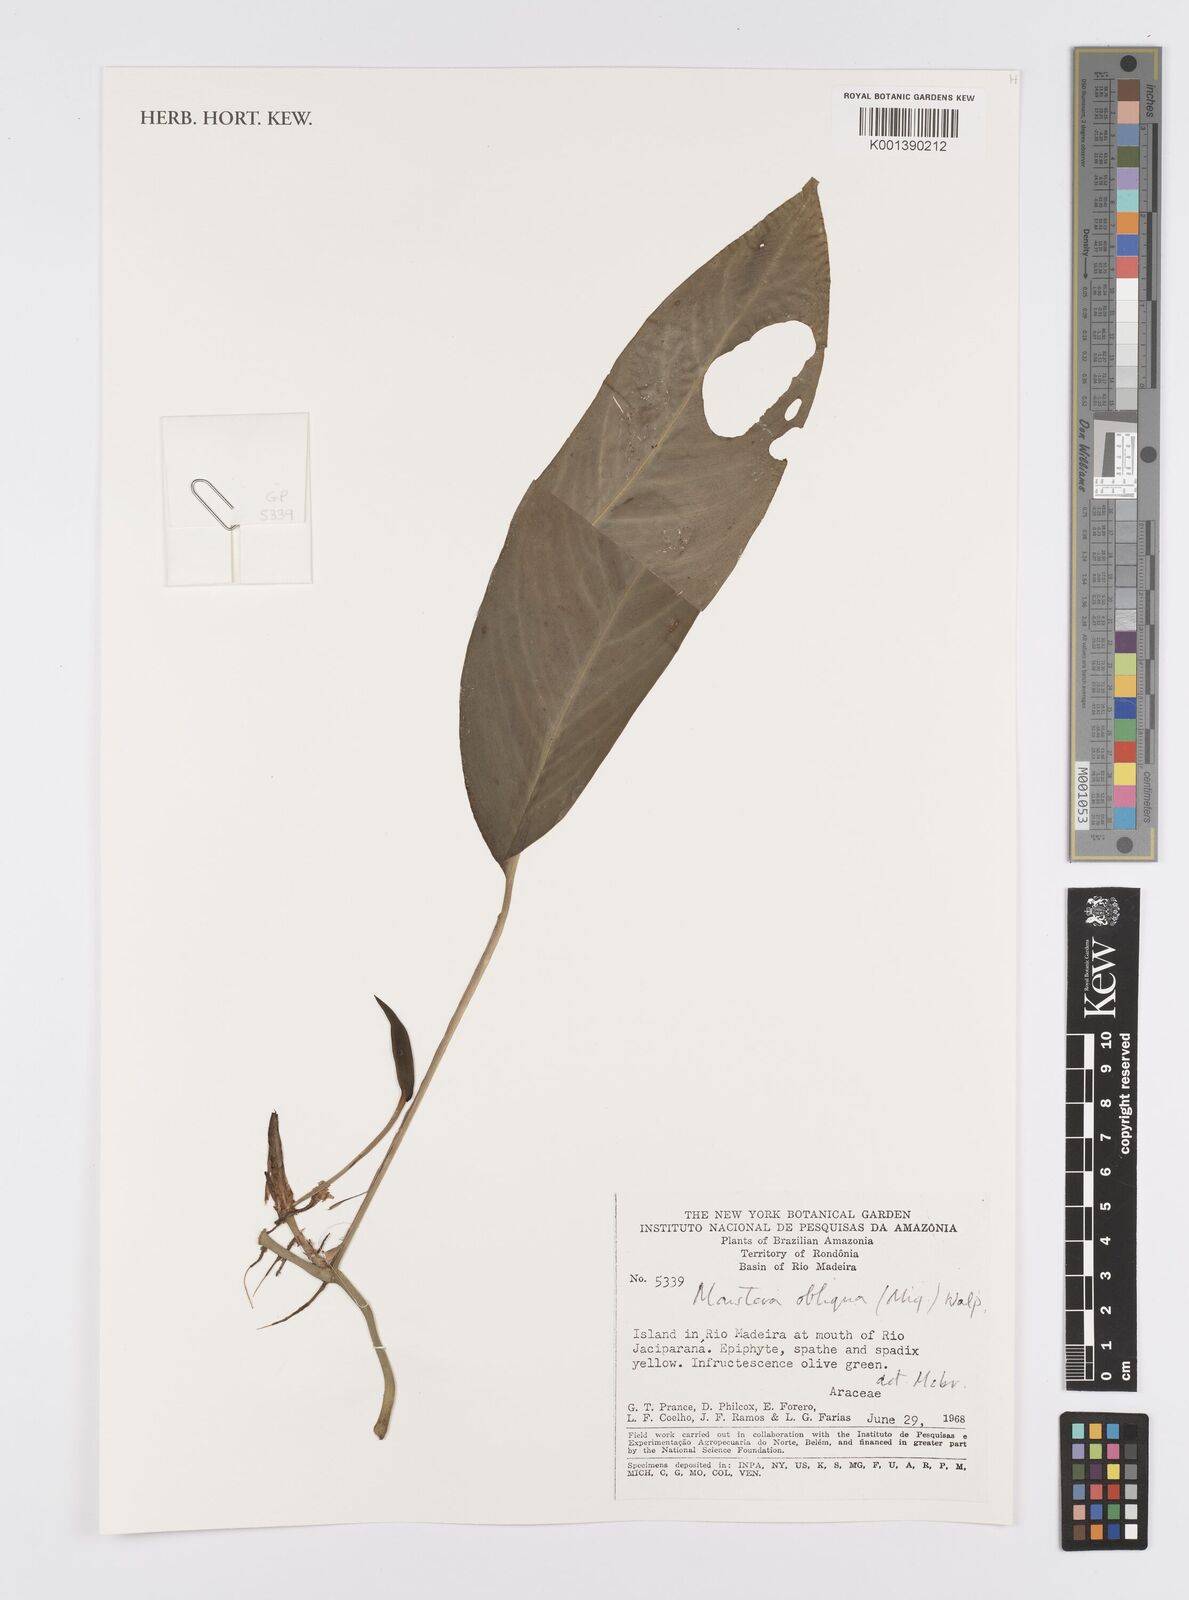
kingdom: Plantae
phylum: Tracheophyta
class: Liliopsida
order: Alismatales
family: Araceae
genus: Monstera
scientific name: Monstera obliqua
